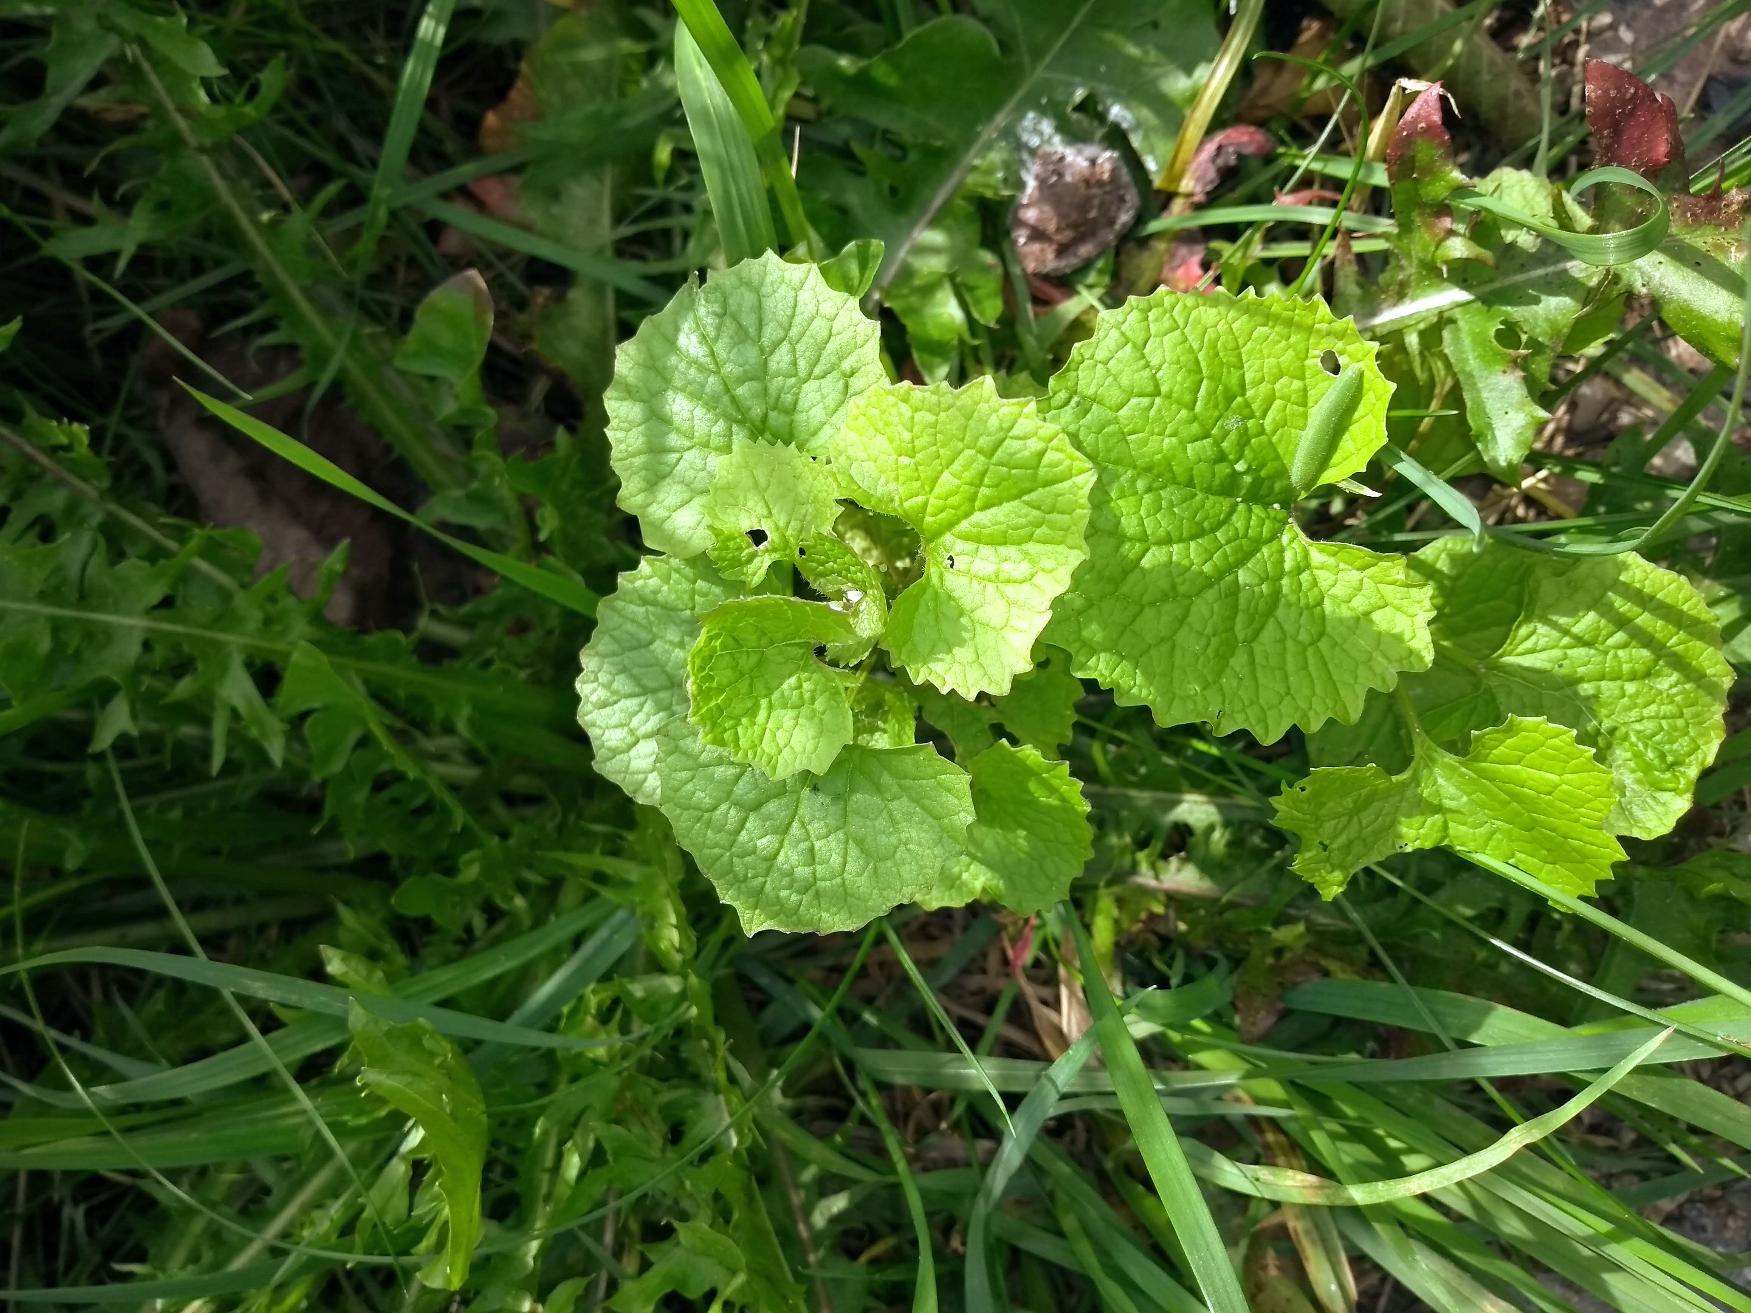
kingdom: Plantae
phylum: Tracheophyta
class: Magnoliopsida
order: Brassicales
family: Brassicaceae
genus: Alliaria
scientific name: Alliaria petiolata
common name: Løgkarse
